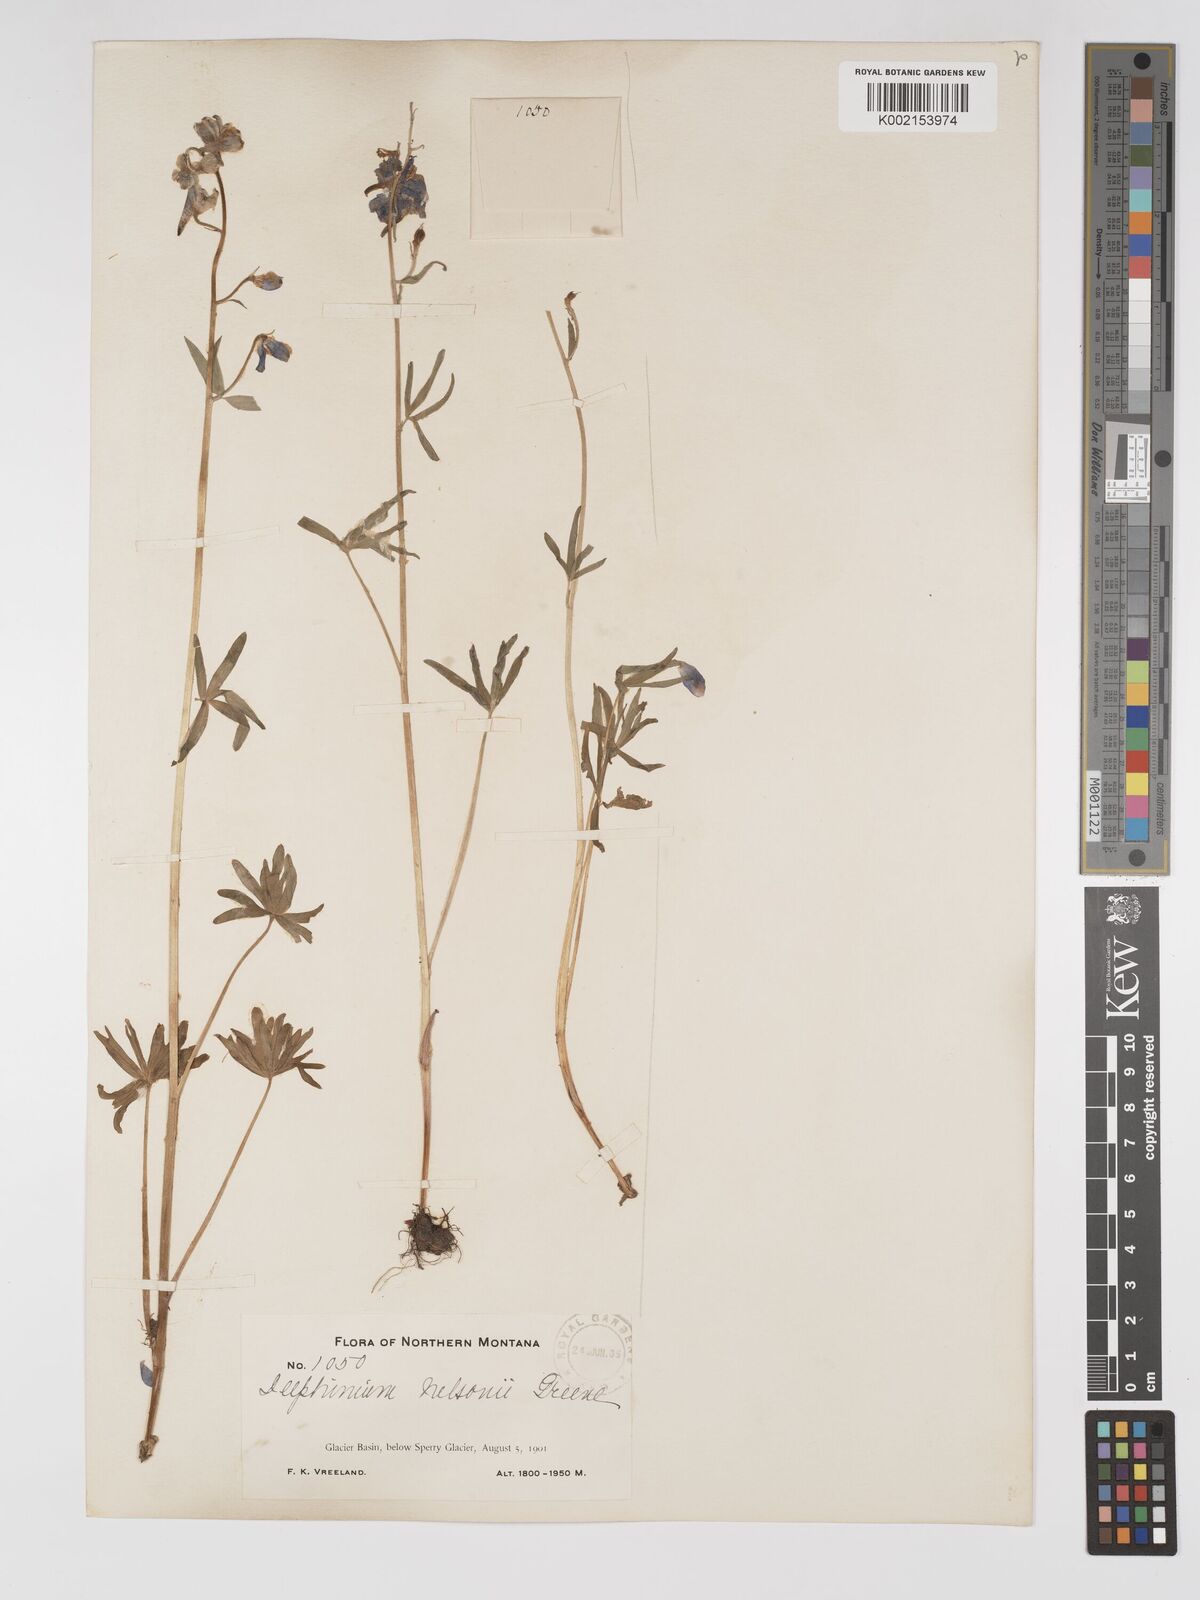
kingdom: Plantae
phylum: Tracheophyta
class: Magnoliopsida
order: Ranunculales
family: Ranunculaceae
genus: Delphinium
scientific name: Delphinium nuttallianum
